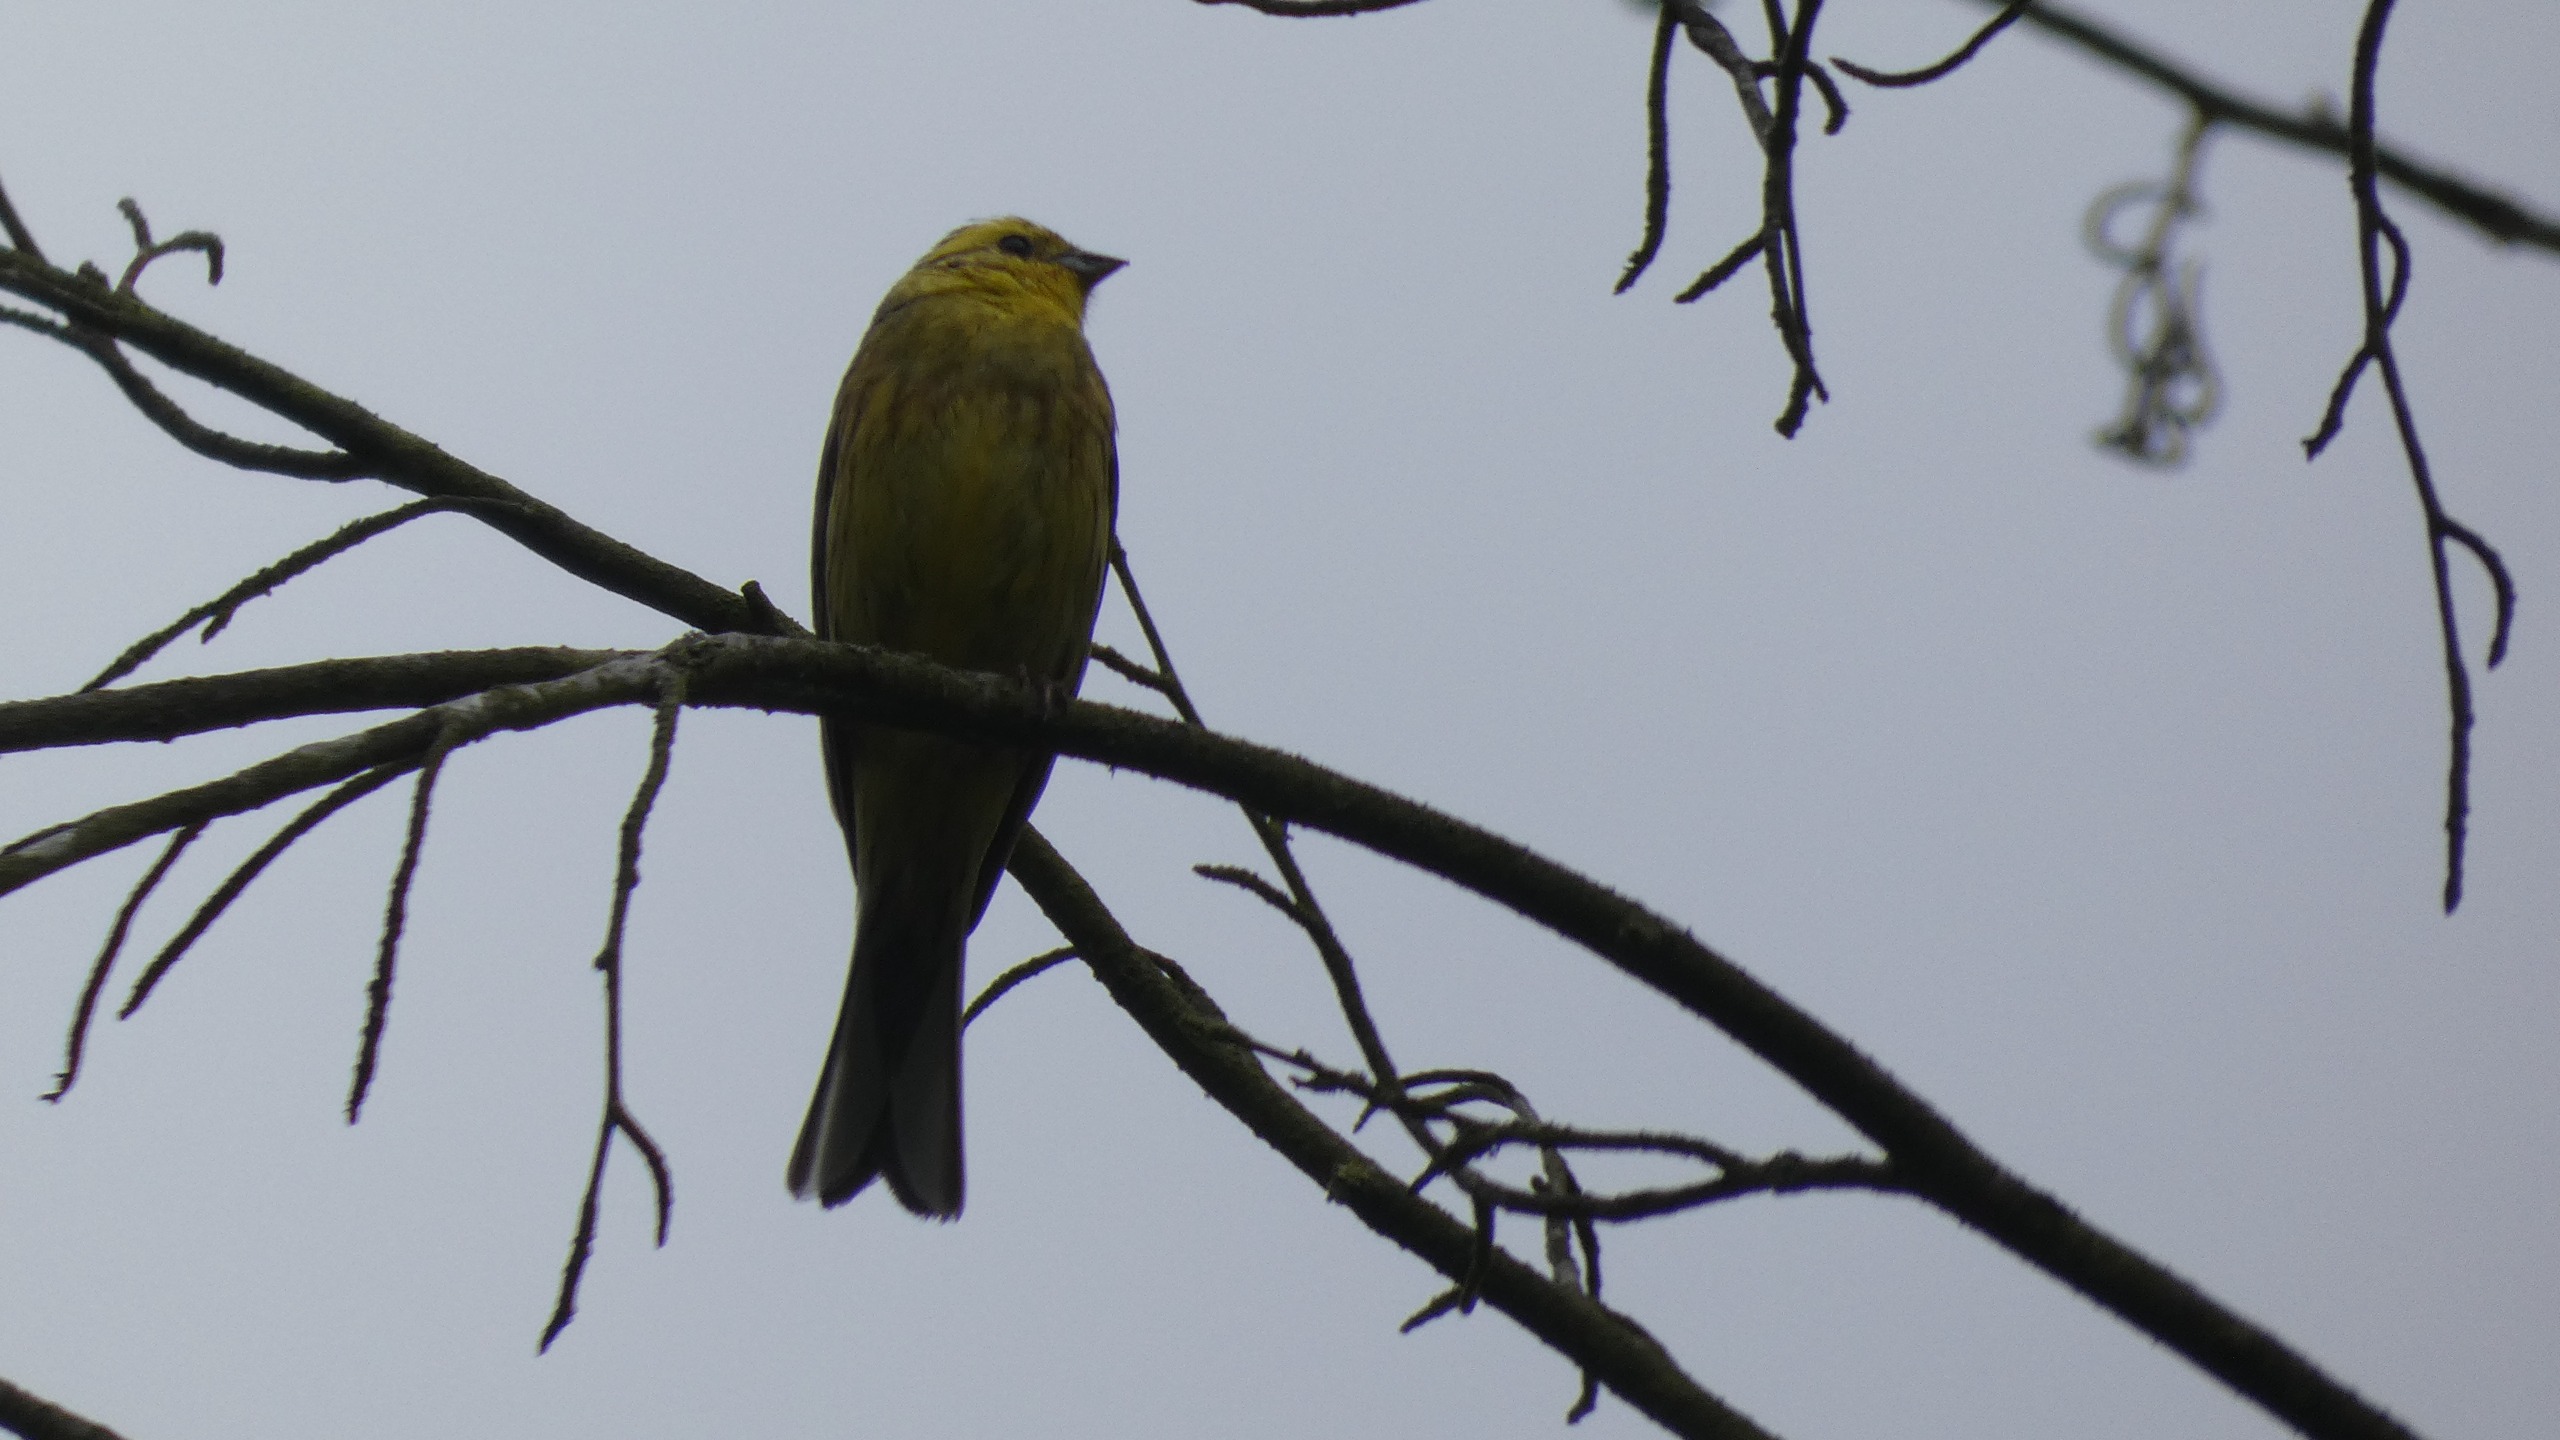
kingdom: Animalia
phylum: Chordata
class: Aves
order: Passeriformes
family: Emberizidae
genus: Emberiza
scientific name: Emberiza citrinella
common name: Gulspurv
